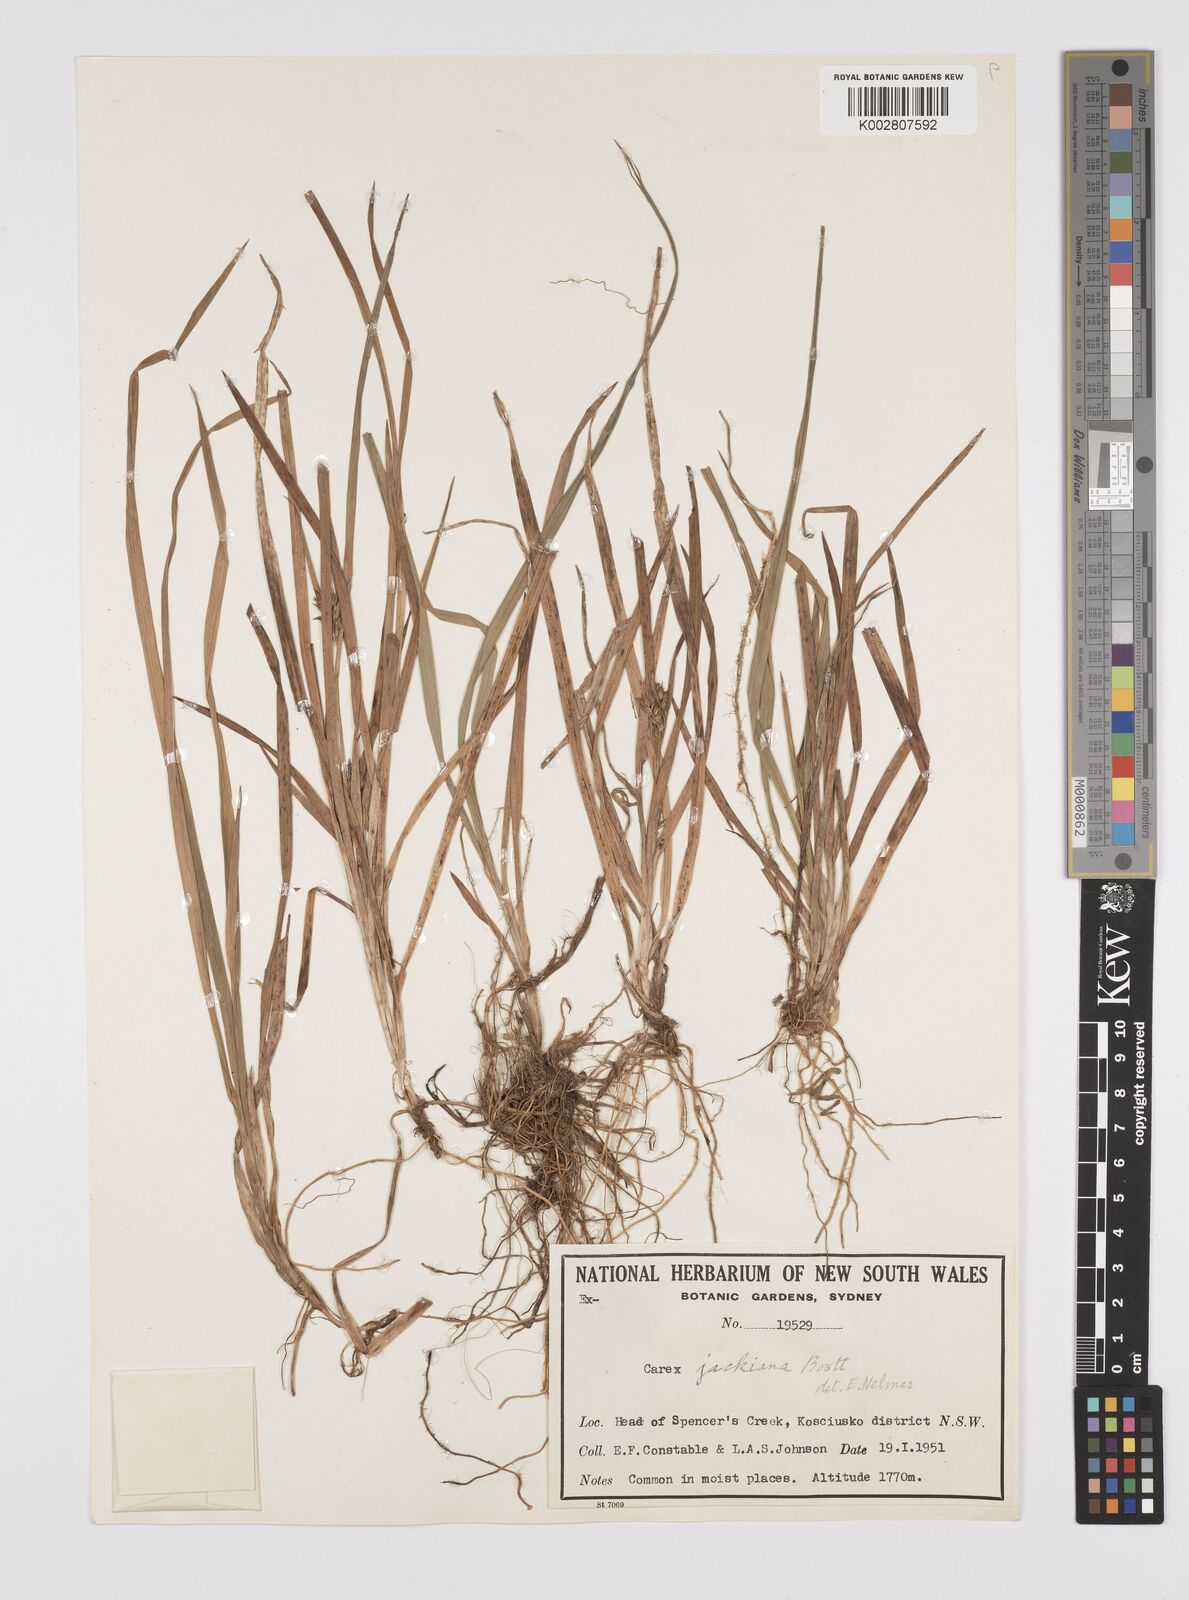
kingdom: Plantae
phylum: Tracheophyta
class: Liliopsida
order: Poales
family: Cyperaceae
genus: Carex
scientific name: Carex jackiana
